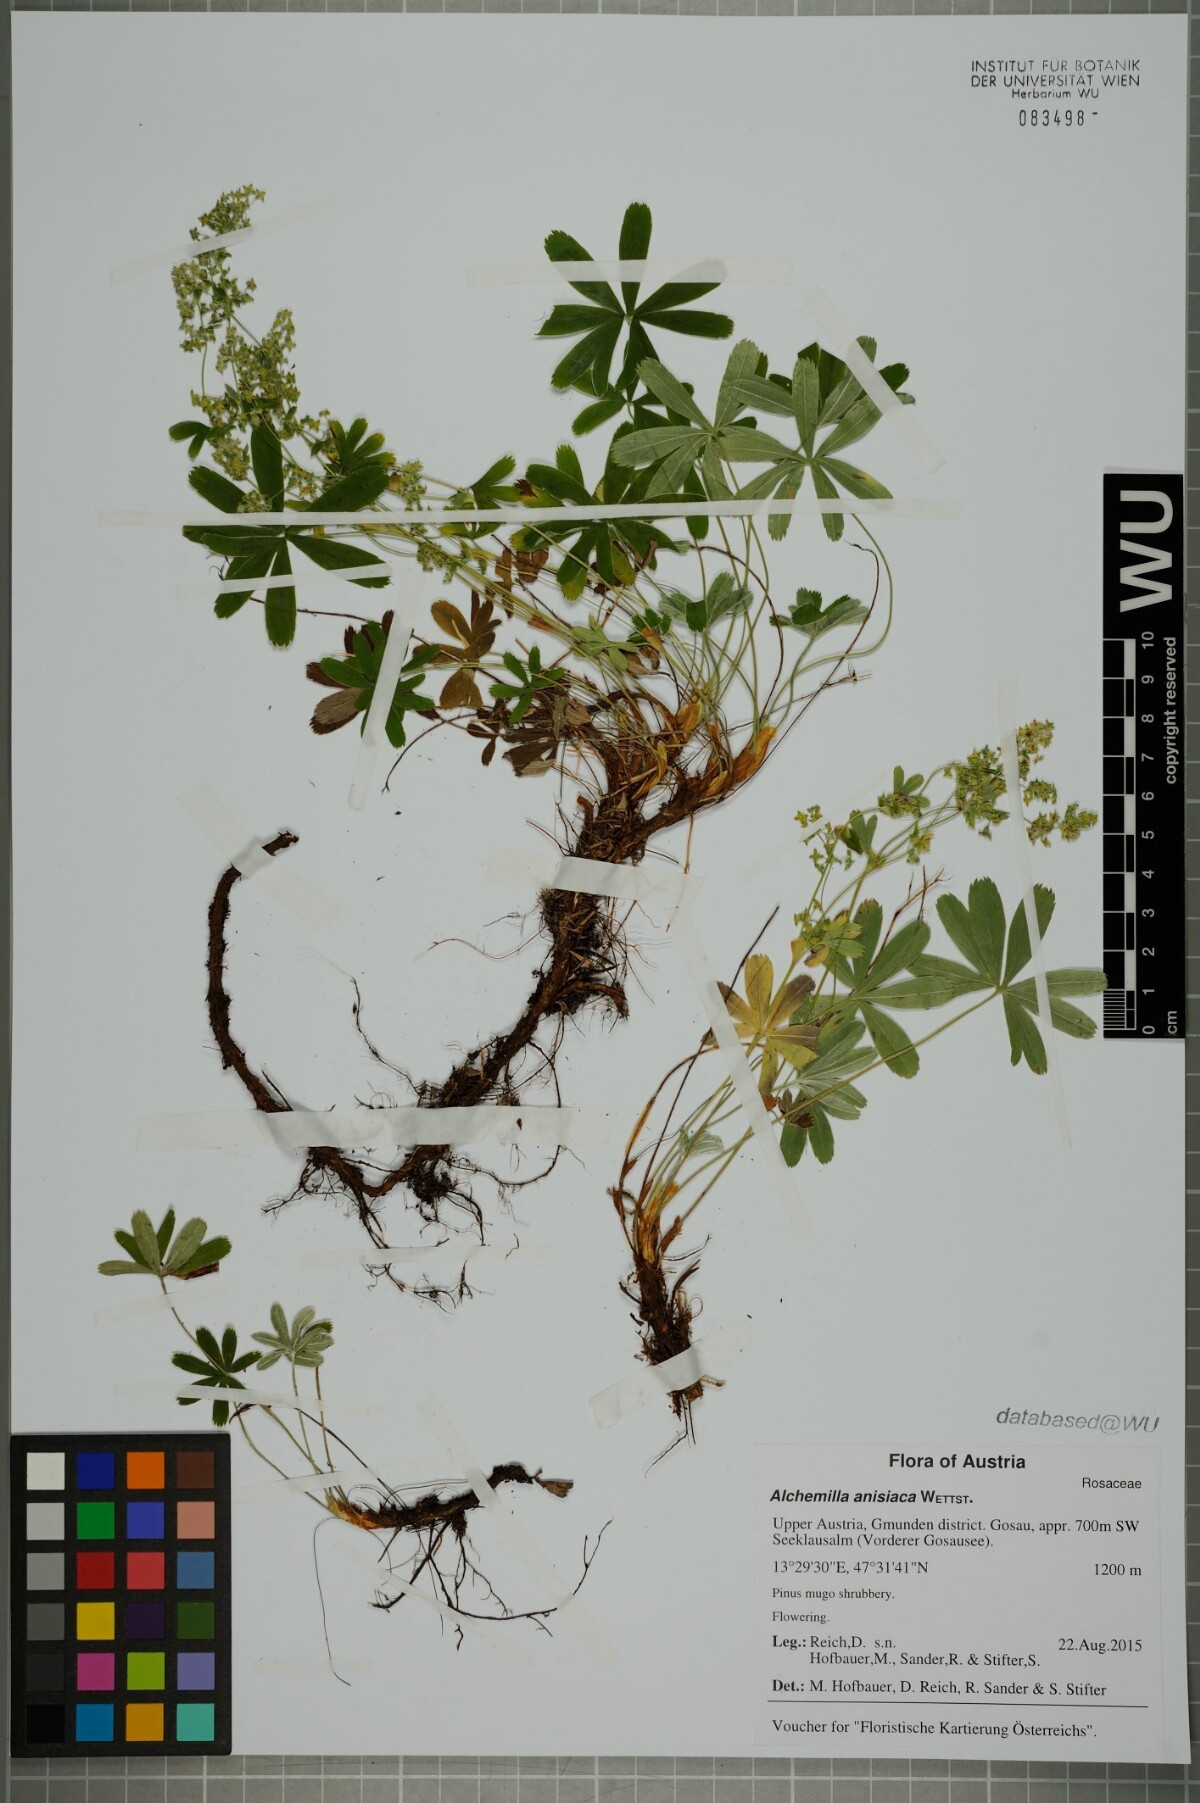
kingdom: Plantae
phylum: Tracheophyta
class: Magnoliopsida
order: Rosales
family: Rosaceae
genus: Alchemilla
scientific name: Alchemilla anisiaca
